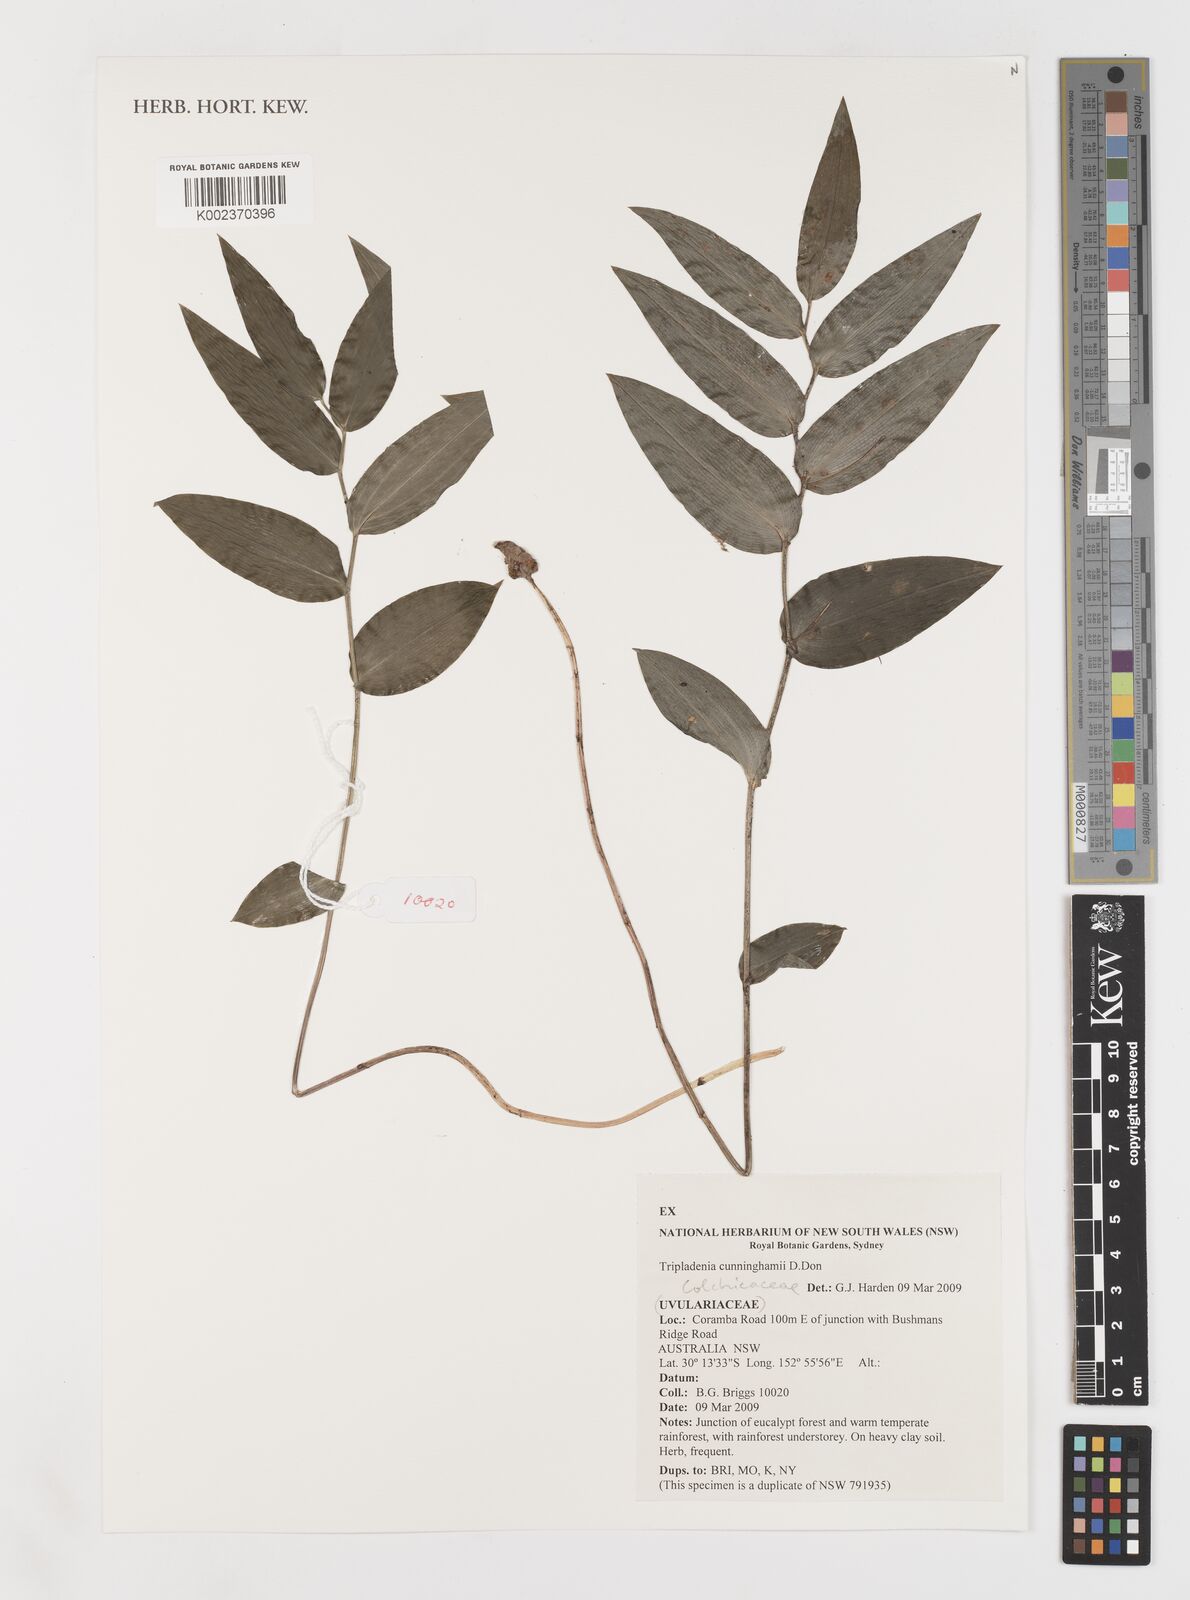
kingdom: Plantae
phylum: Tracheophyta
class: Liliopsida
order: Liliales
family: Colchicaceae
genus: Tripladenia
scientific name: Tripladenia
